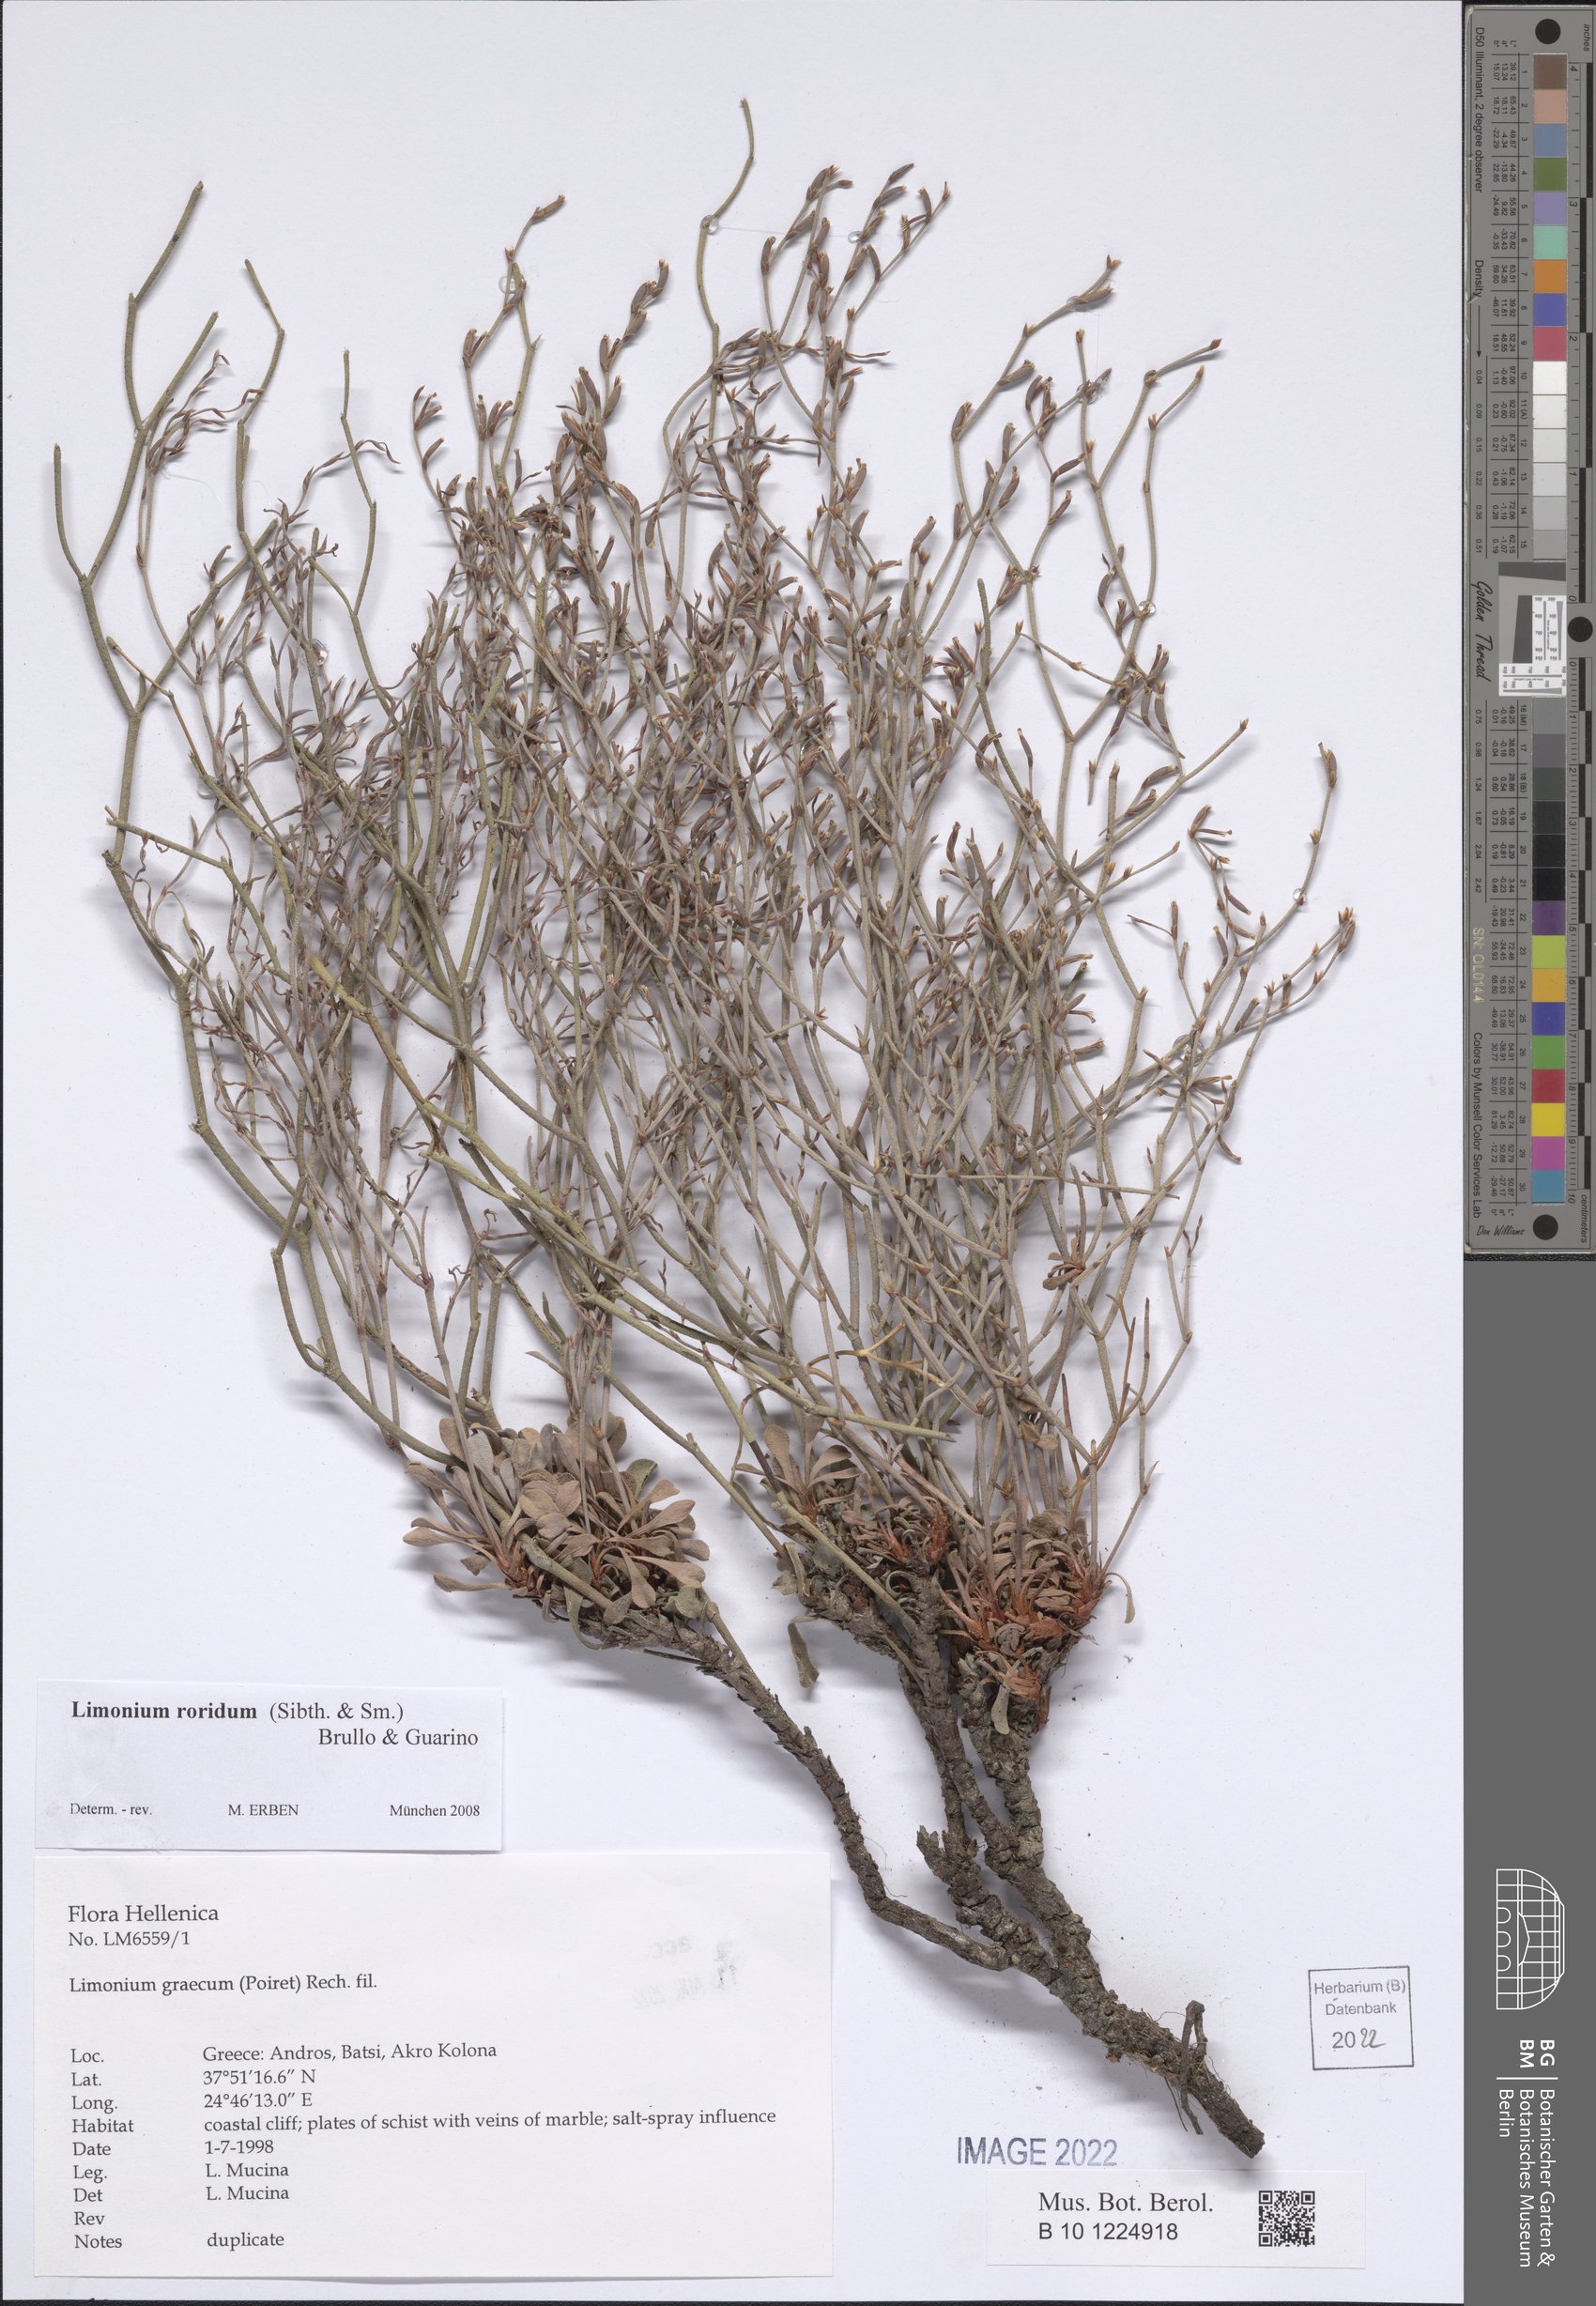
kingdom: Plantae
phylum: Tracheophyta
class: Magnoliopsida
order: Caryophyllales
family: Plumbaginaceae
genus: Limonium
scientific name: Limonium roridum
